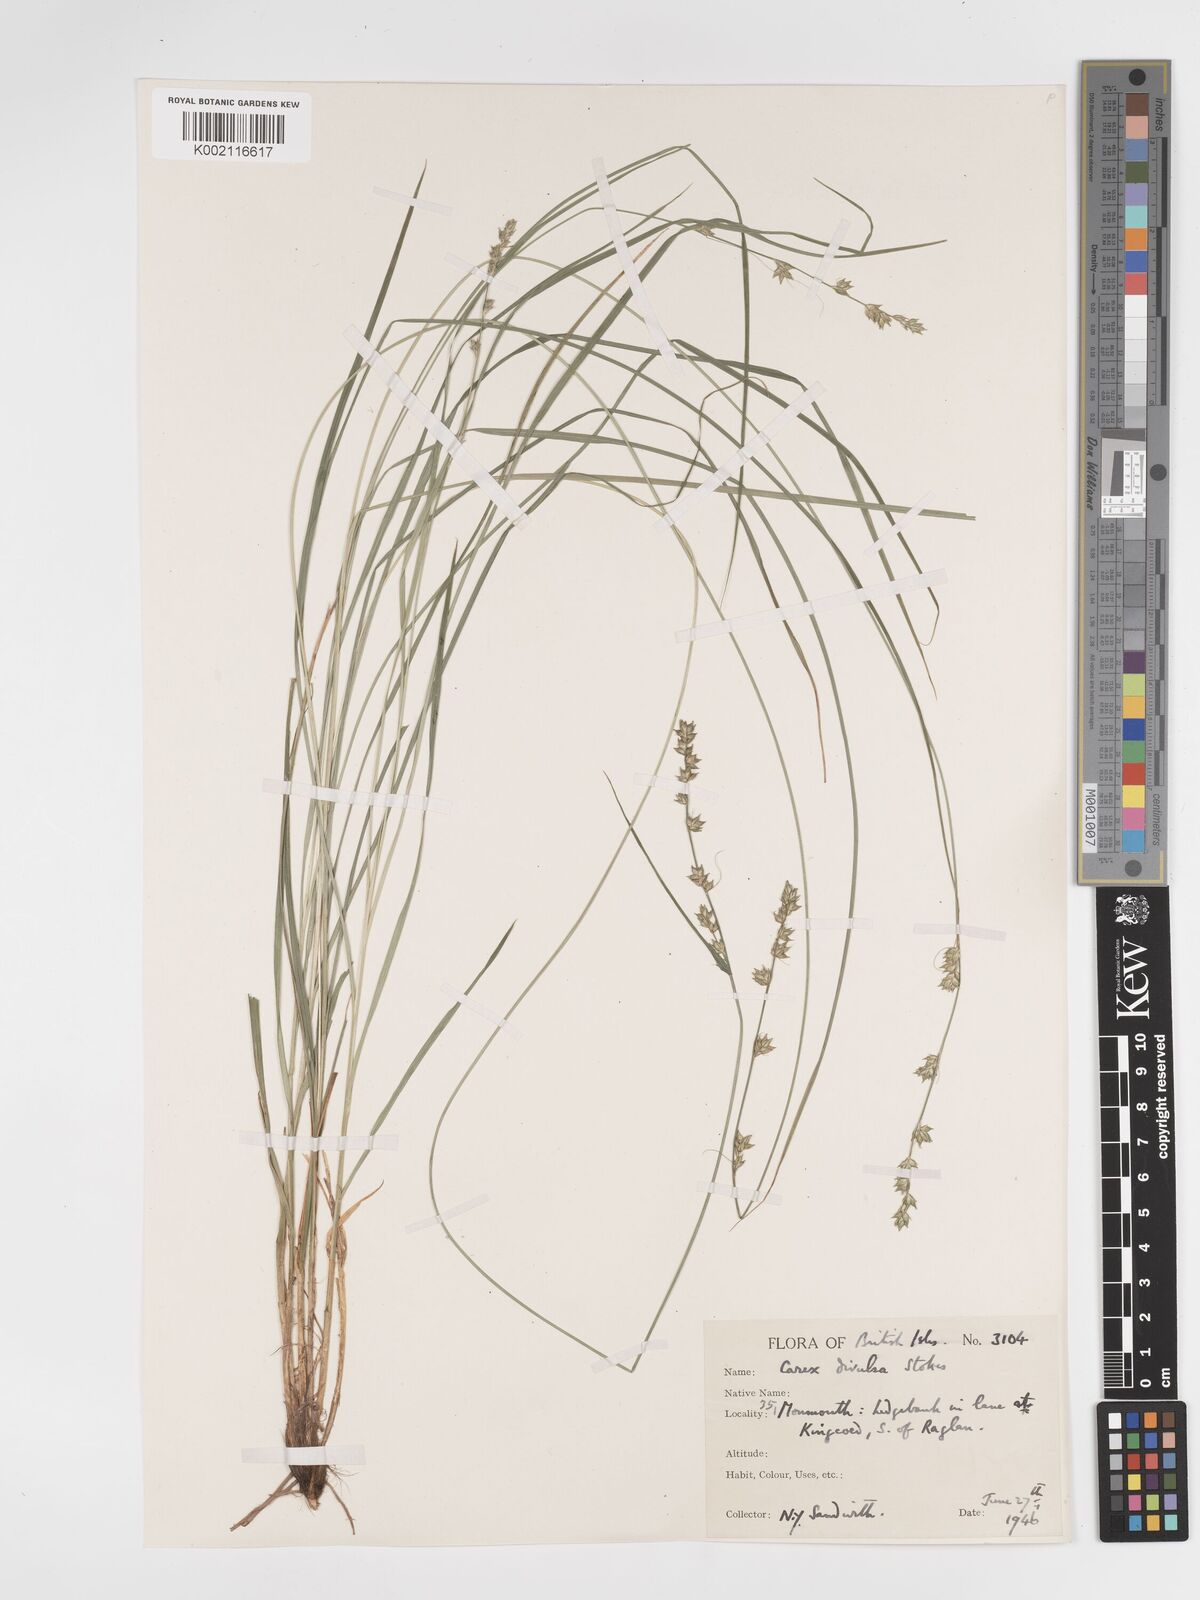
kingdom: Plantae
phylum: Tracheophyta
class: Liliopsida
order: Poales
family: Cyperaceae
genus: Carex
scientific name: Carex divulsa
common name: Grassland sedge
